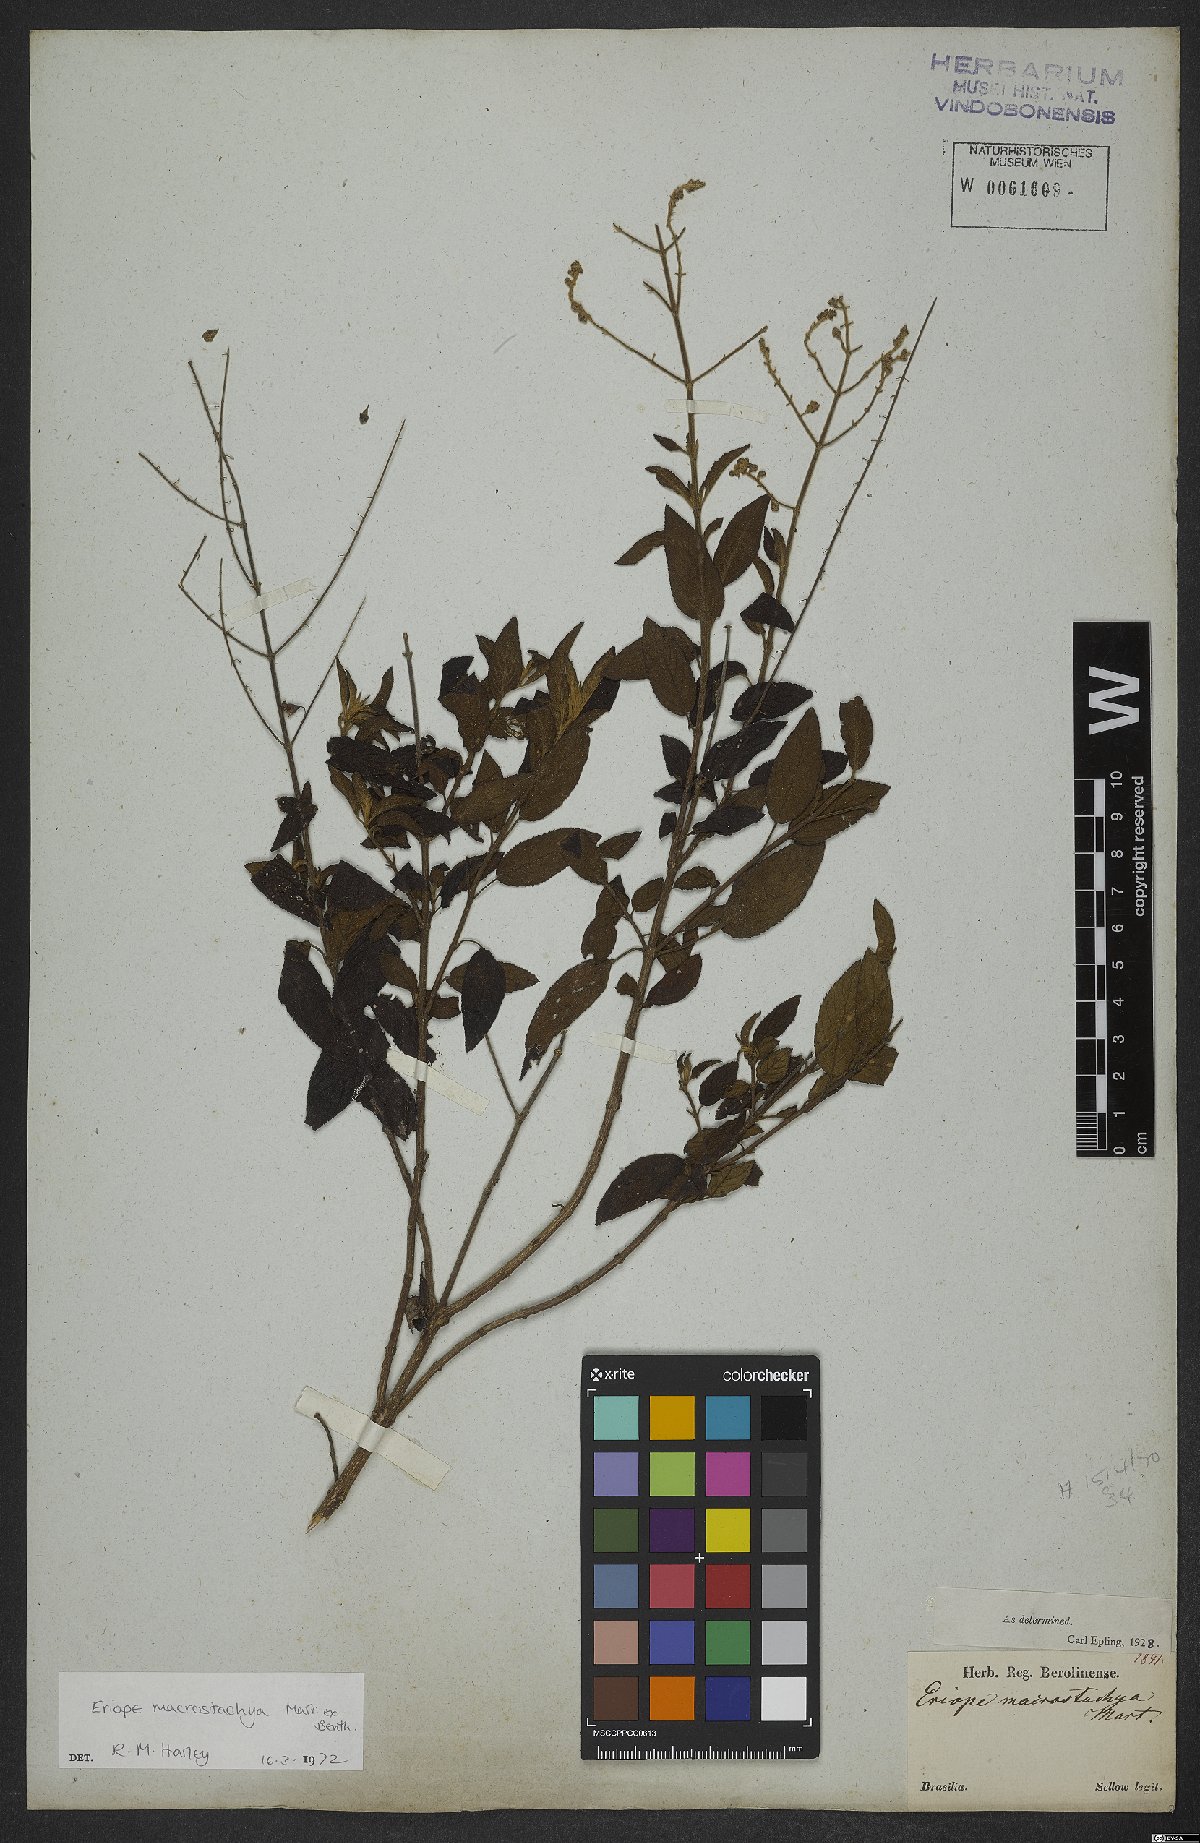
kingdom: Plantae
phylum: Tracheophyta
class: Magnoliopsida
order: Lamiales
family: Lamiaceae
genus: Eriope
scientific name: Eriope macrostachya
